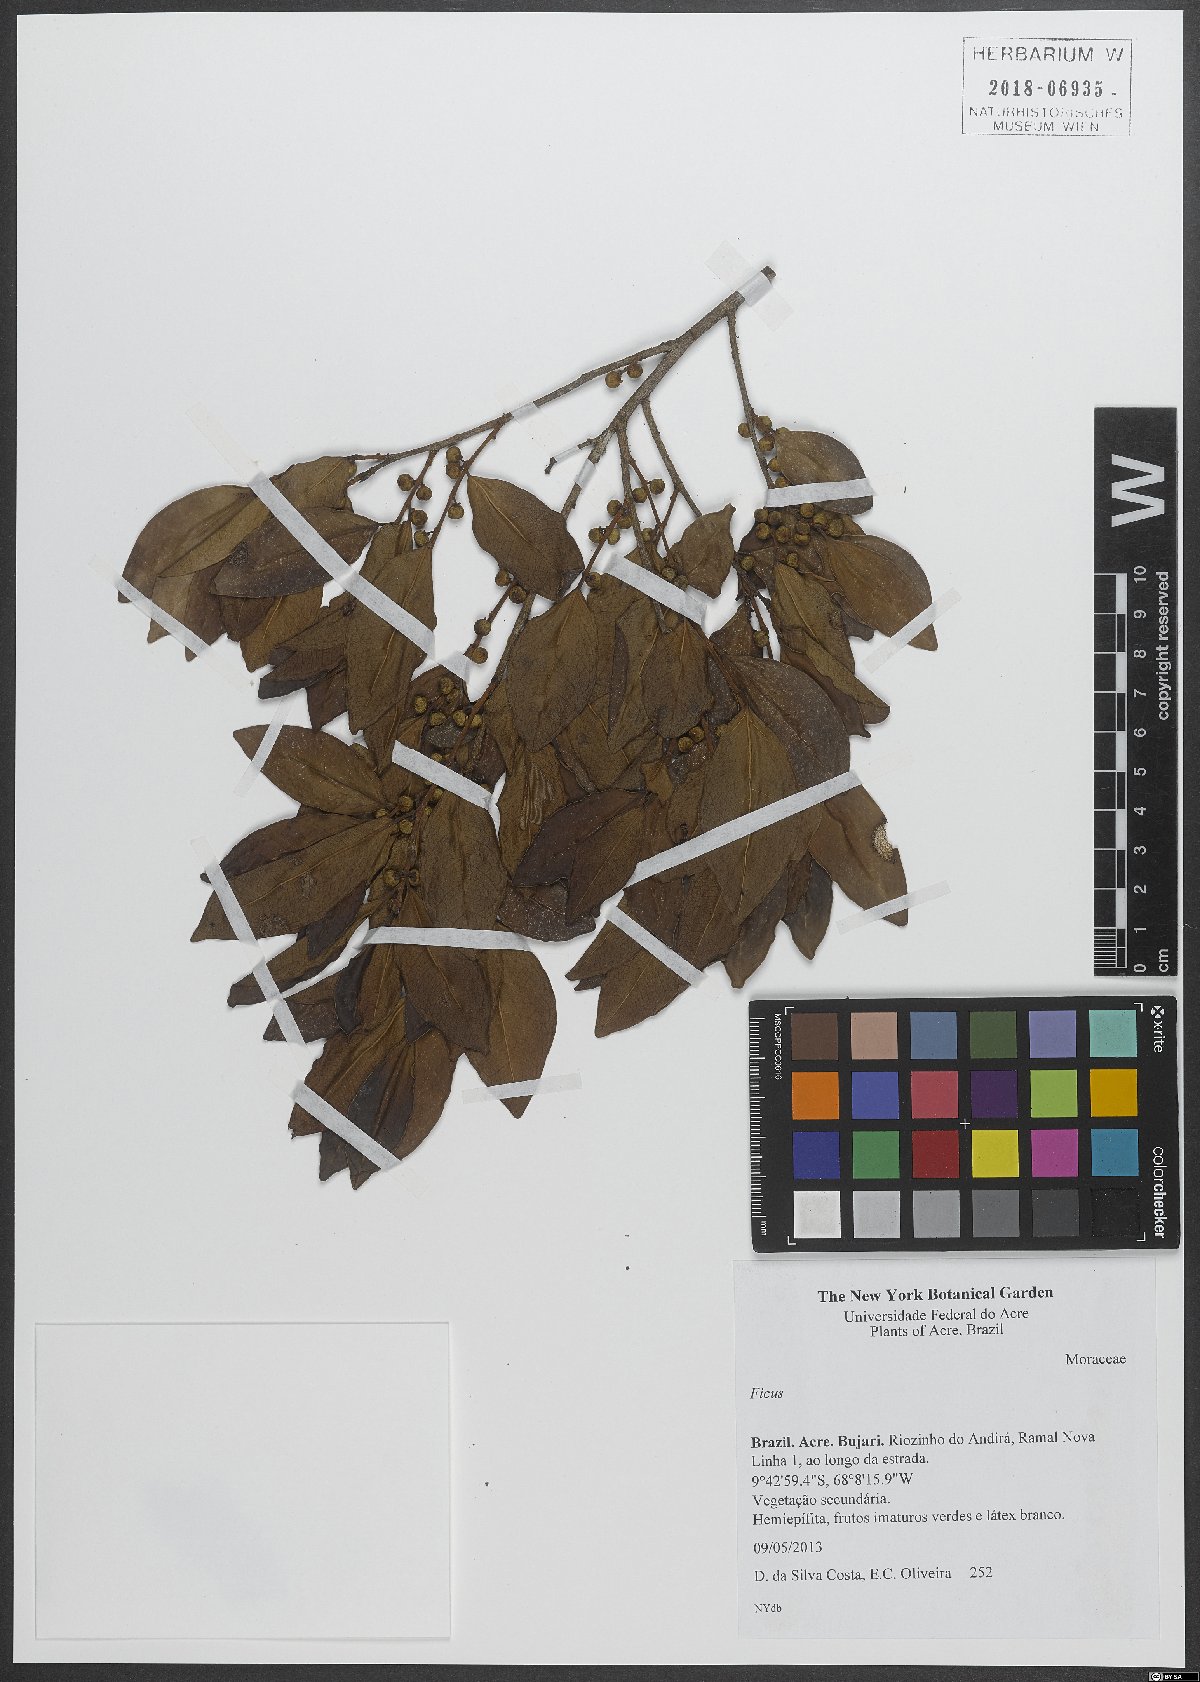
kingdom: Plantae
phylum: Tracheophyta
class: Magnoliopsida
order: Rosales
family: Moraceae
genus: Ficus
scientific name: Ficus
